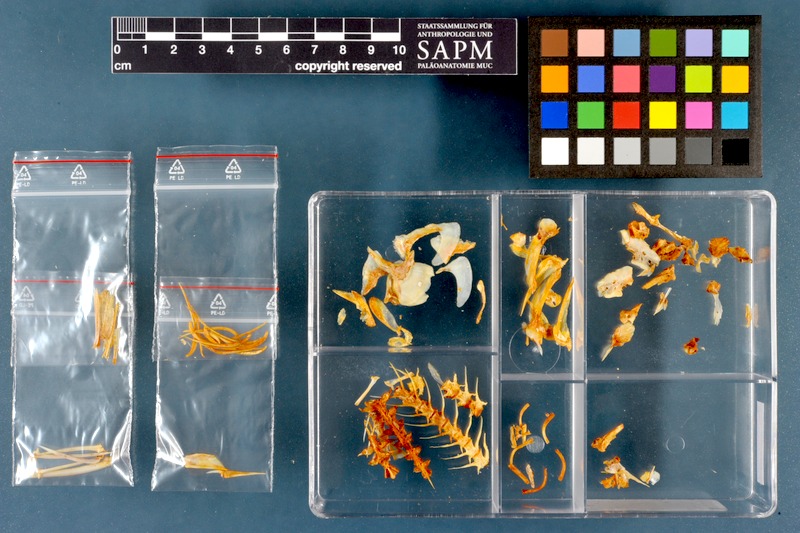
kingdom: Animalia
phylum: Chordata
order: Mugiliformes
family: Mugilidae
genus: Planiliza
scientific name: Planiliza abu
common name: Abu mullet
